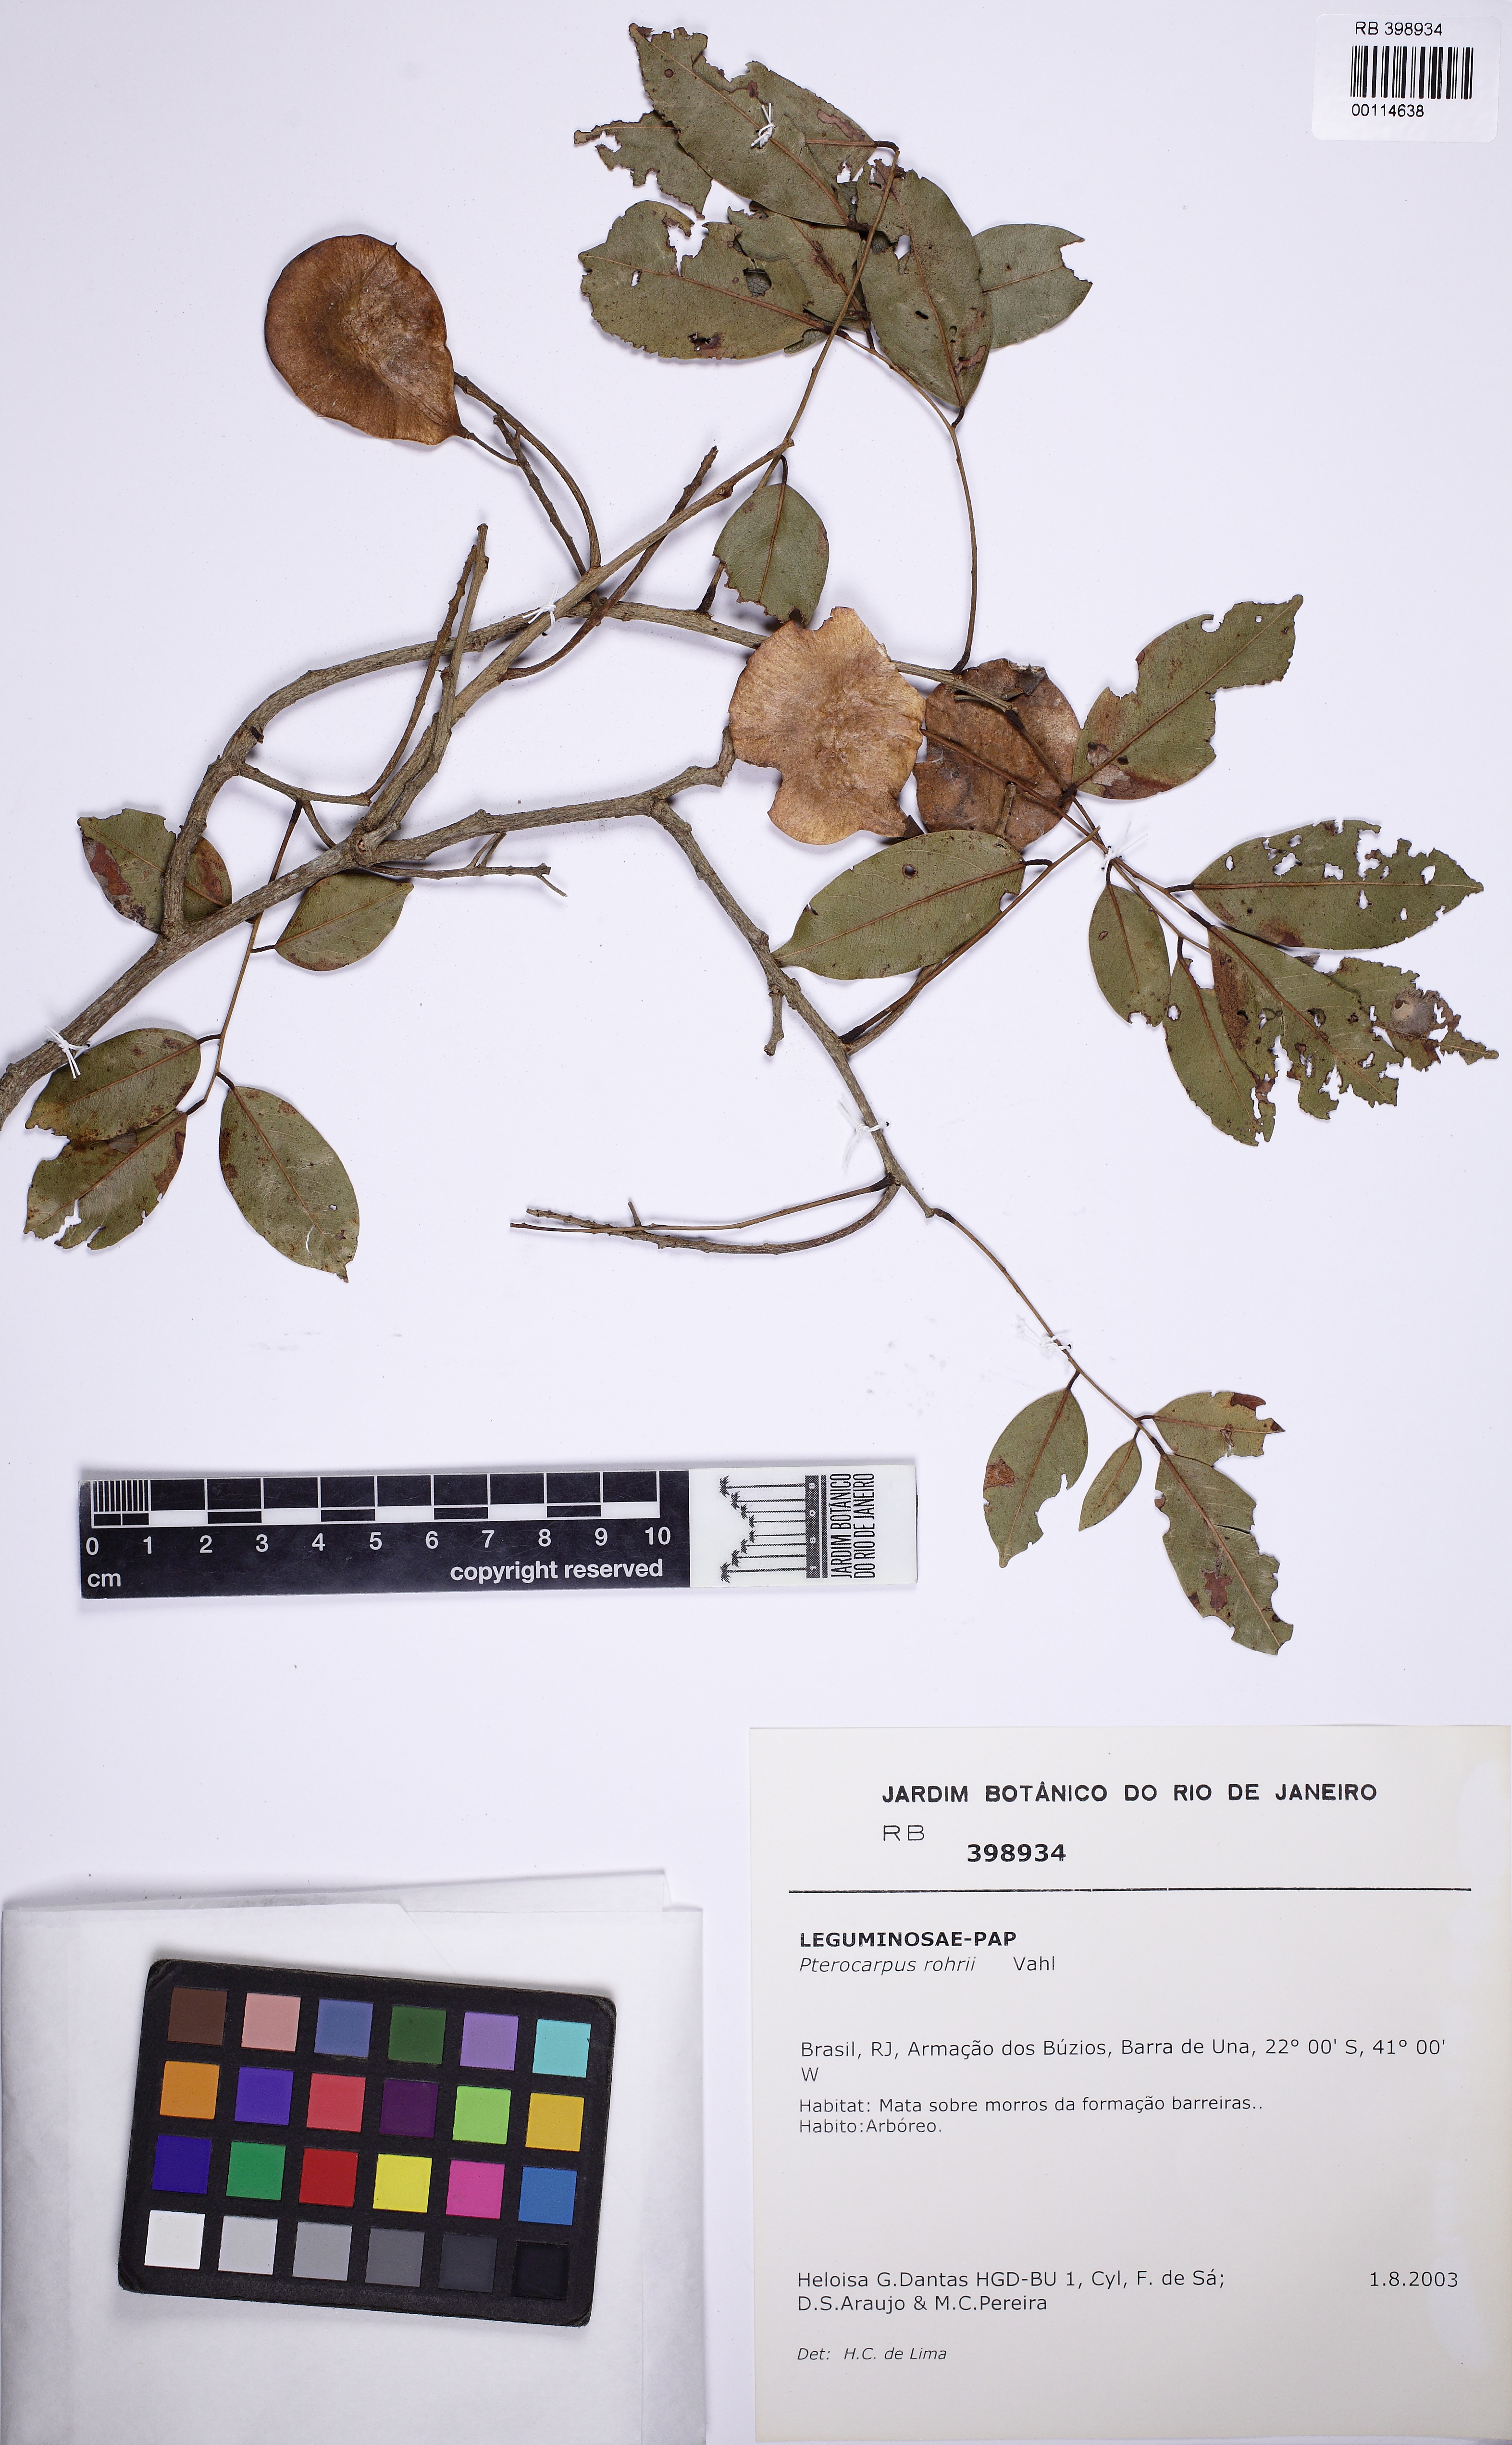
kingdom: Plantae
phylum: Tracheophyta
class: Magnoliopsida
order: Fabales
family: Fabaceae
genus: Pterocarpus
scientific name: Pterocarpus rohrii
